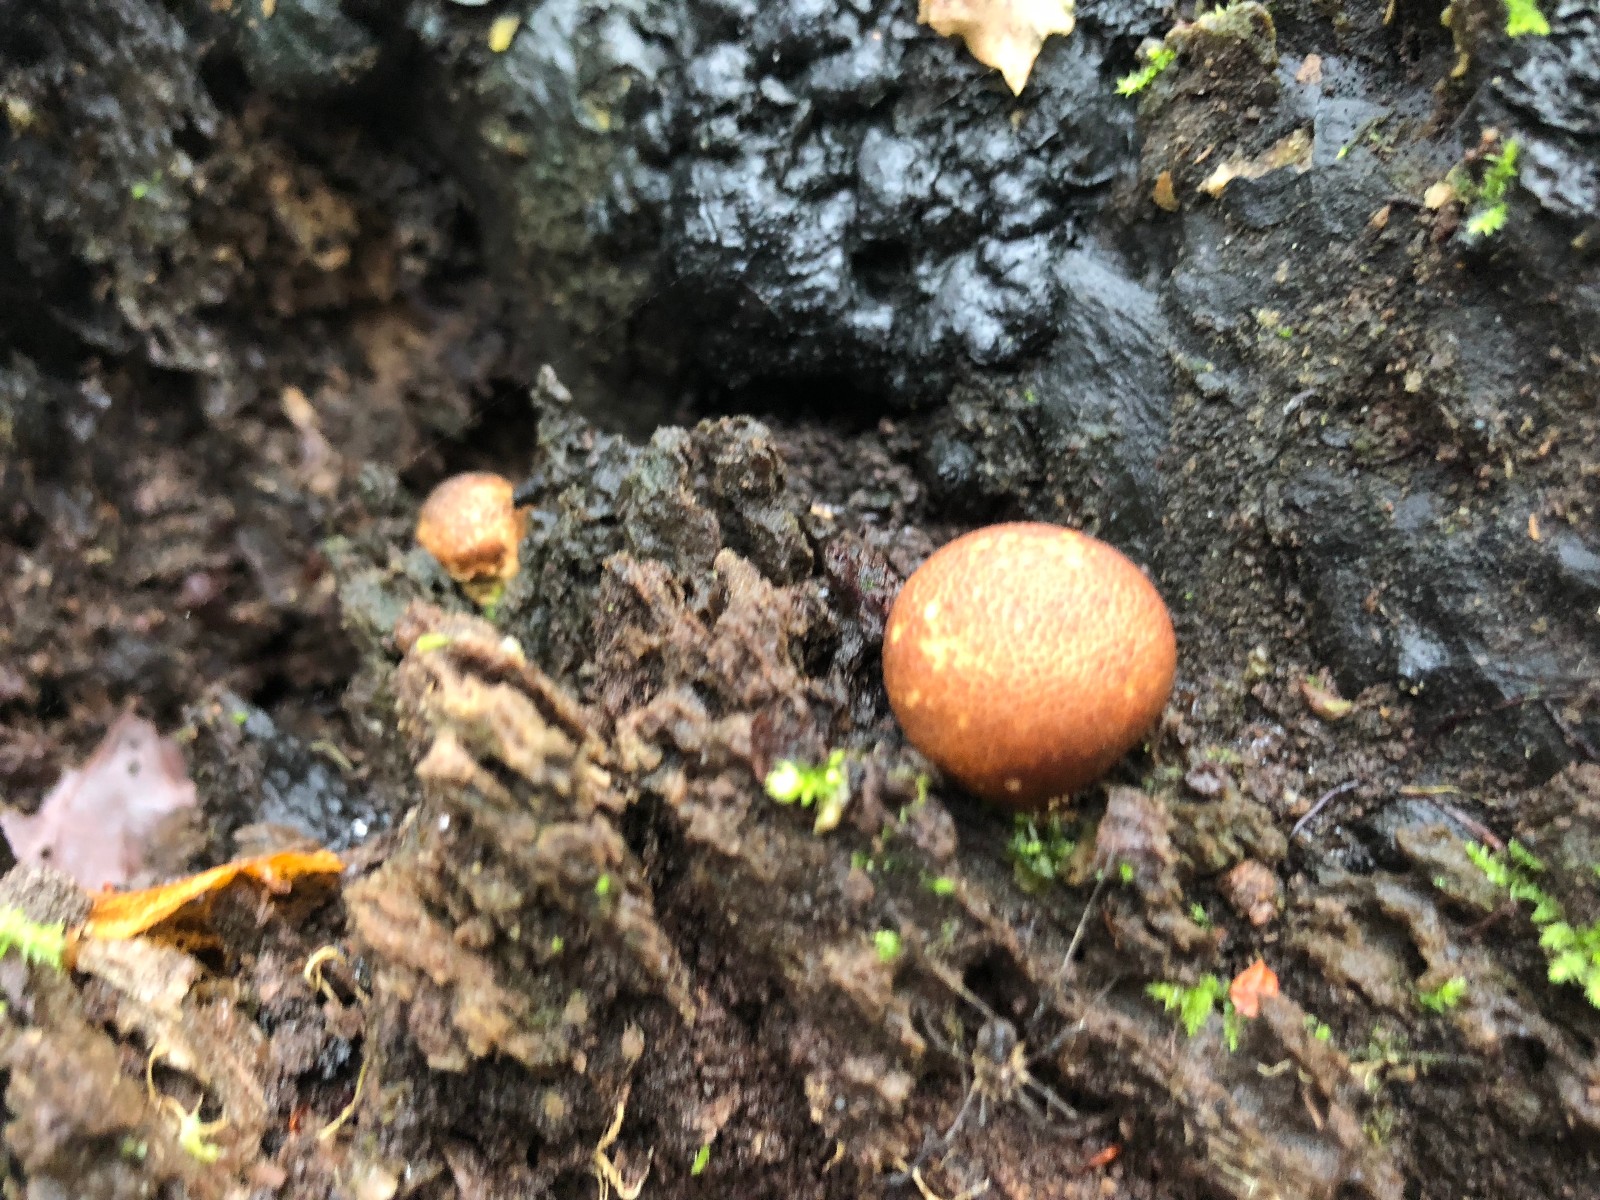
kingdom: Fungi
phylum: Basidiomycota
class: Agaricomycetes
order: Agaricales
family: Lycoperdaceae
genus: Apioperdon
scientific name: Apioperdon pyriforme
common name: pære-støvbold
